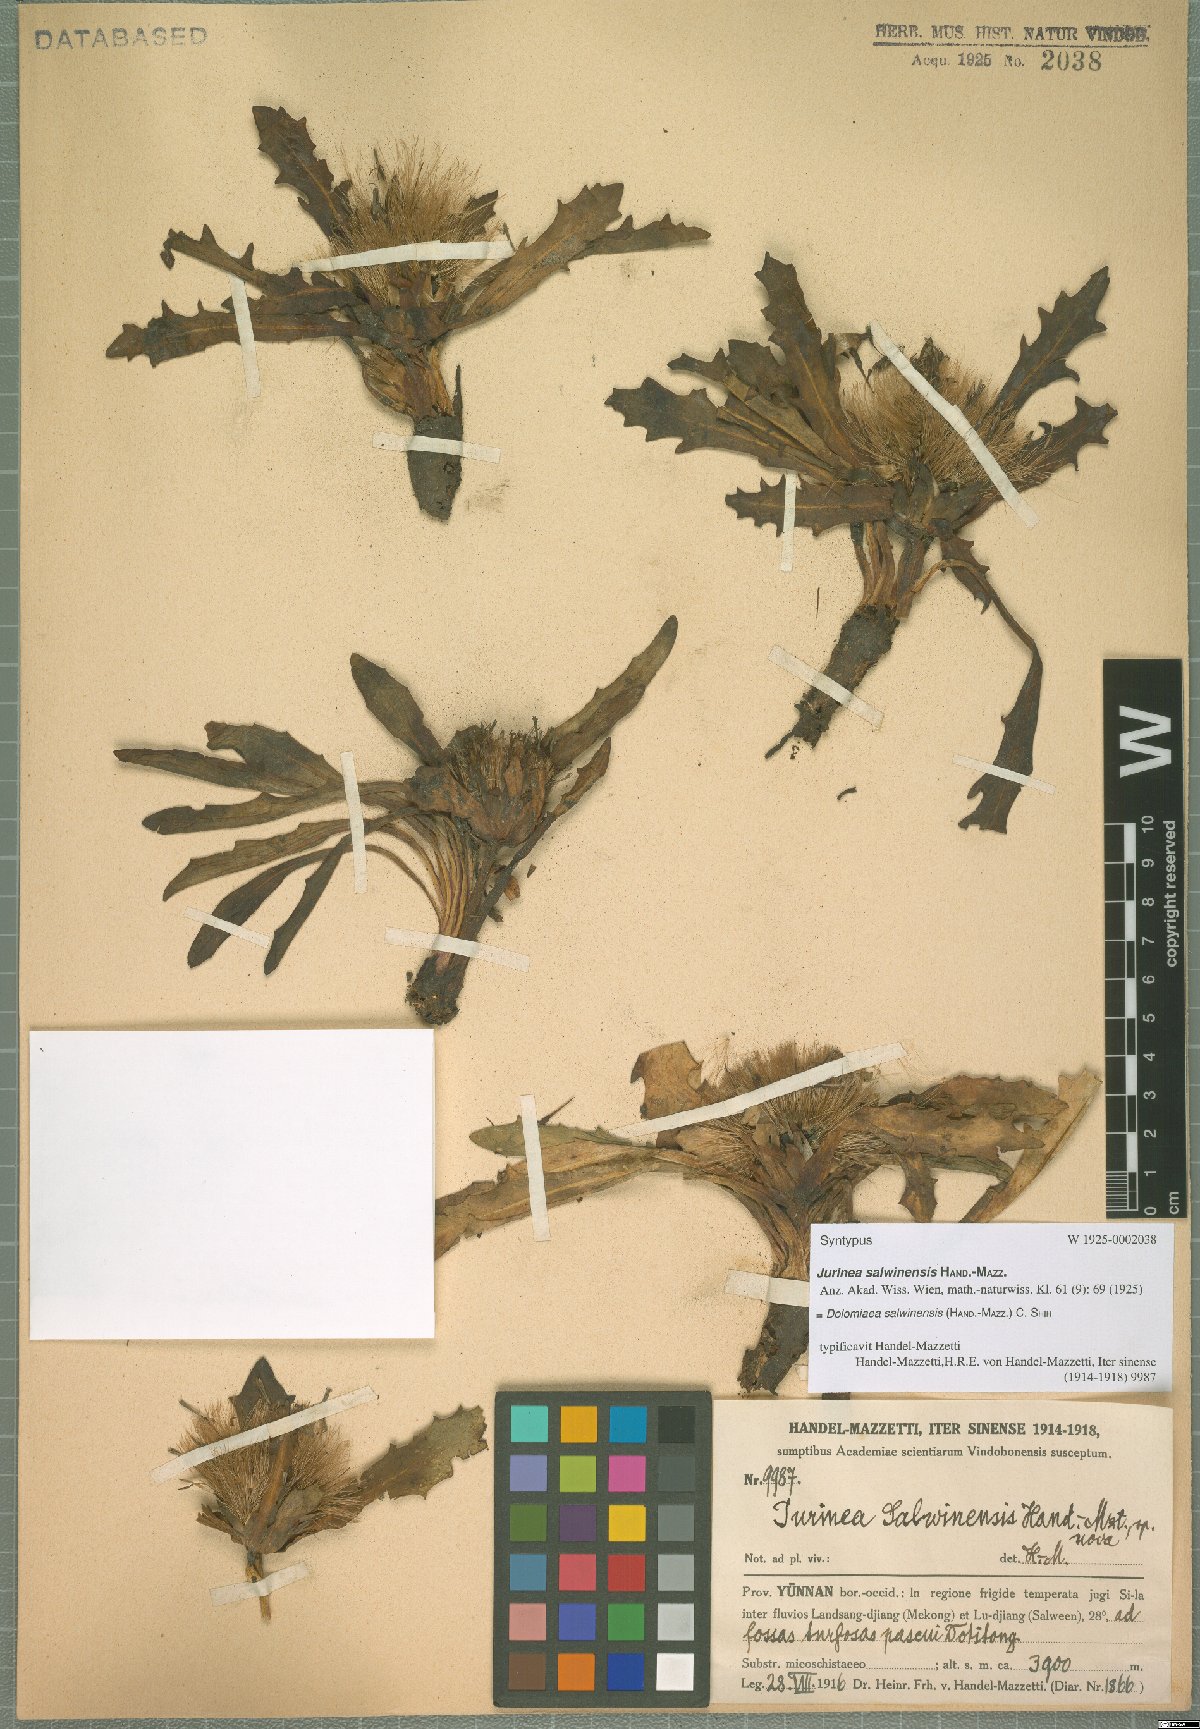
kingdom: Plantae
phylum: Tracheophyta
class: Magnoliopsida
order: Asterales
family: Asteraceae
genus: Dolomiaea
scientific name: Dolomiaea salwinensis
